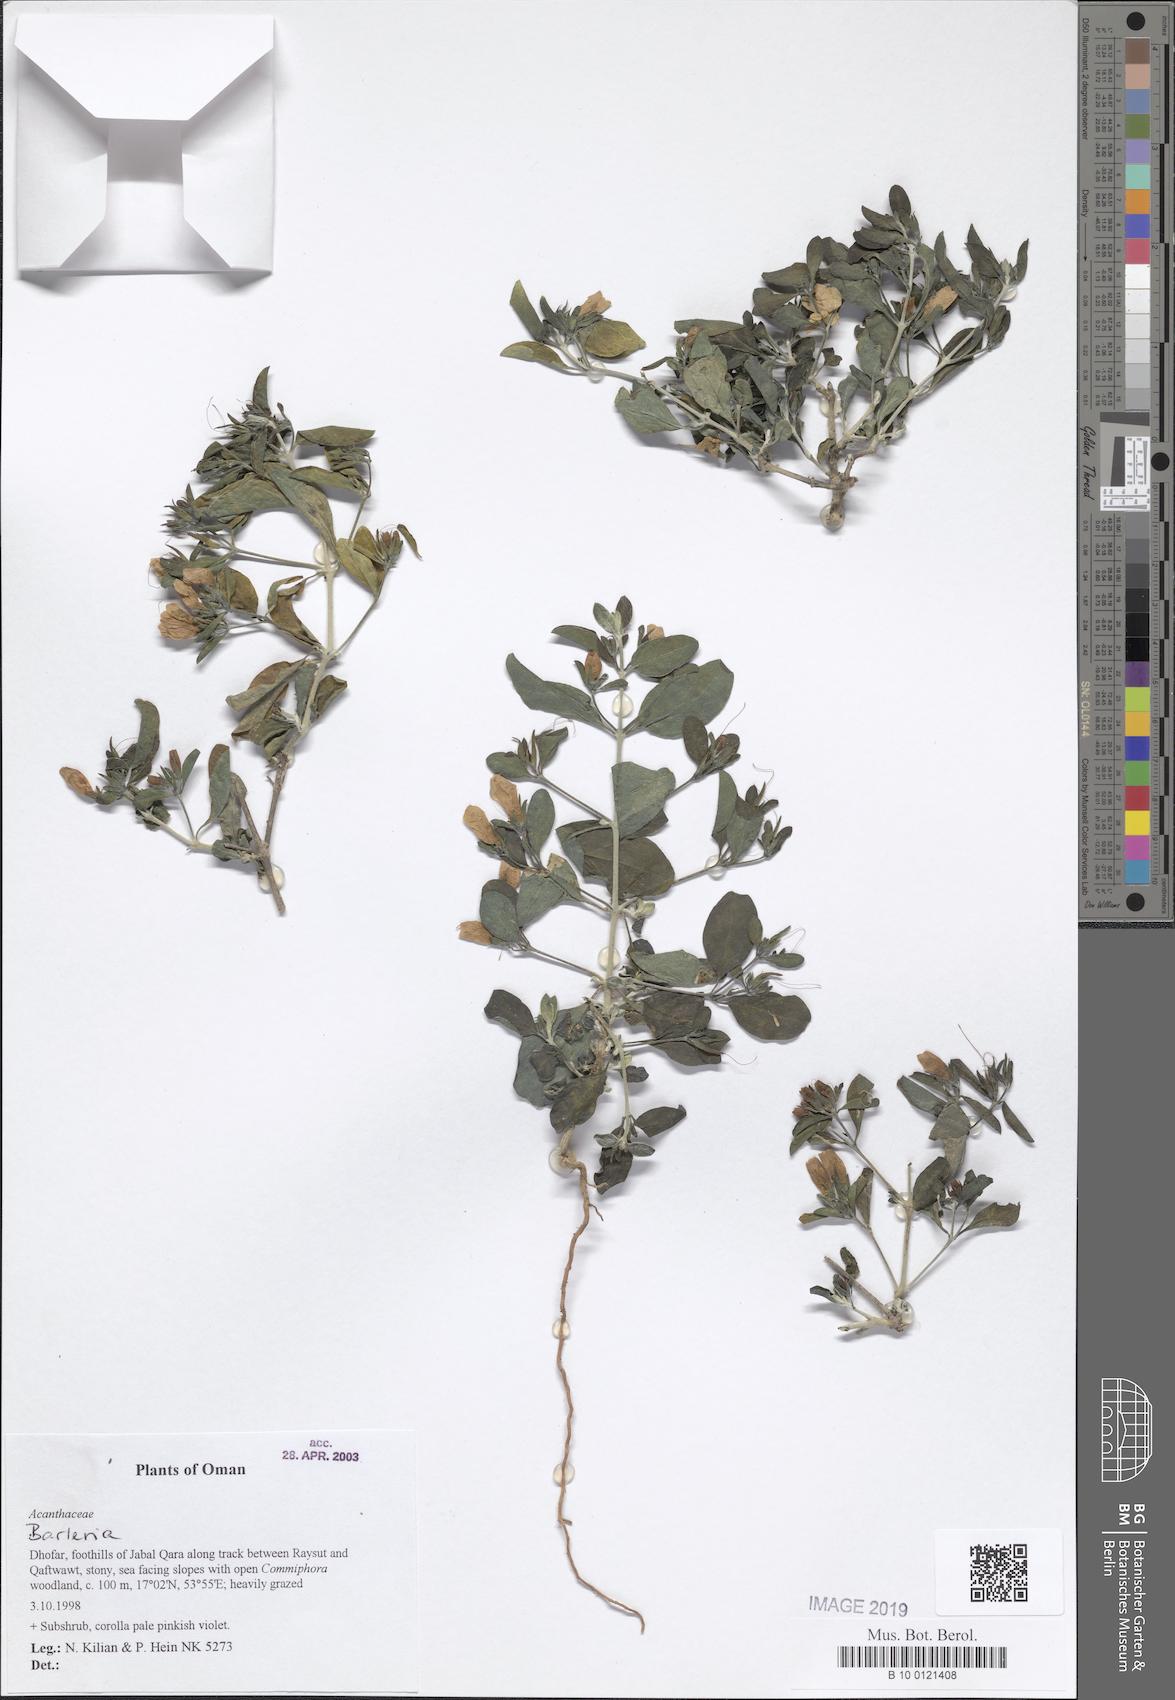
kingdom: Plantae
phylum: Tracheophyta
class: Magnoliopsida
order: Lamiales
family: Acanthaceae
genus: Barleria
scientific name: Barleria
